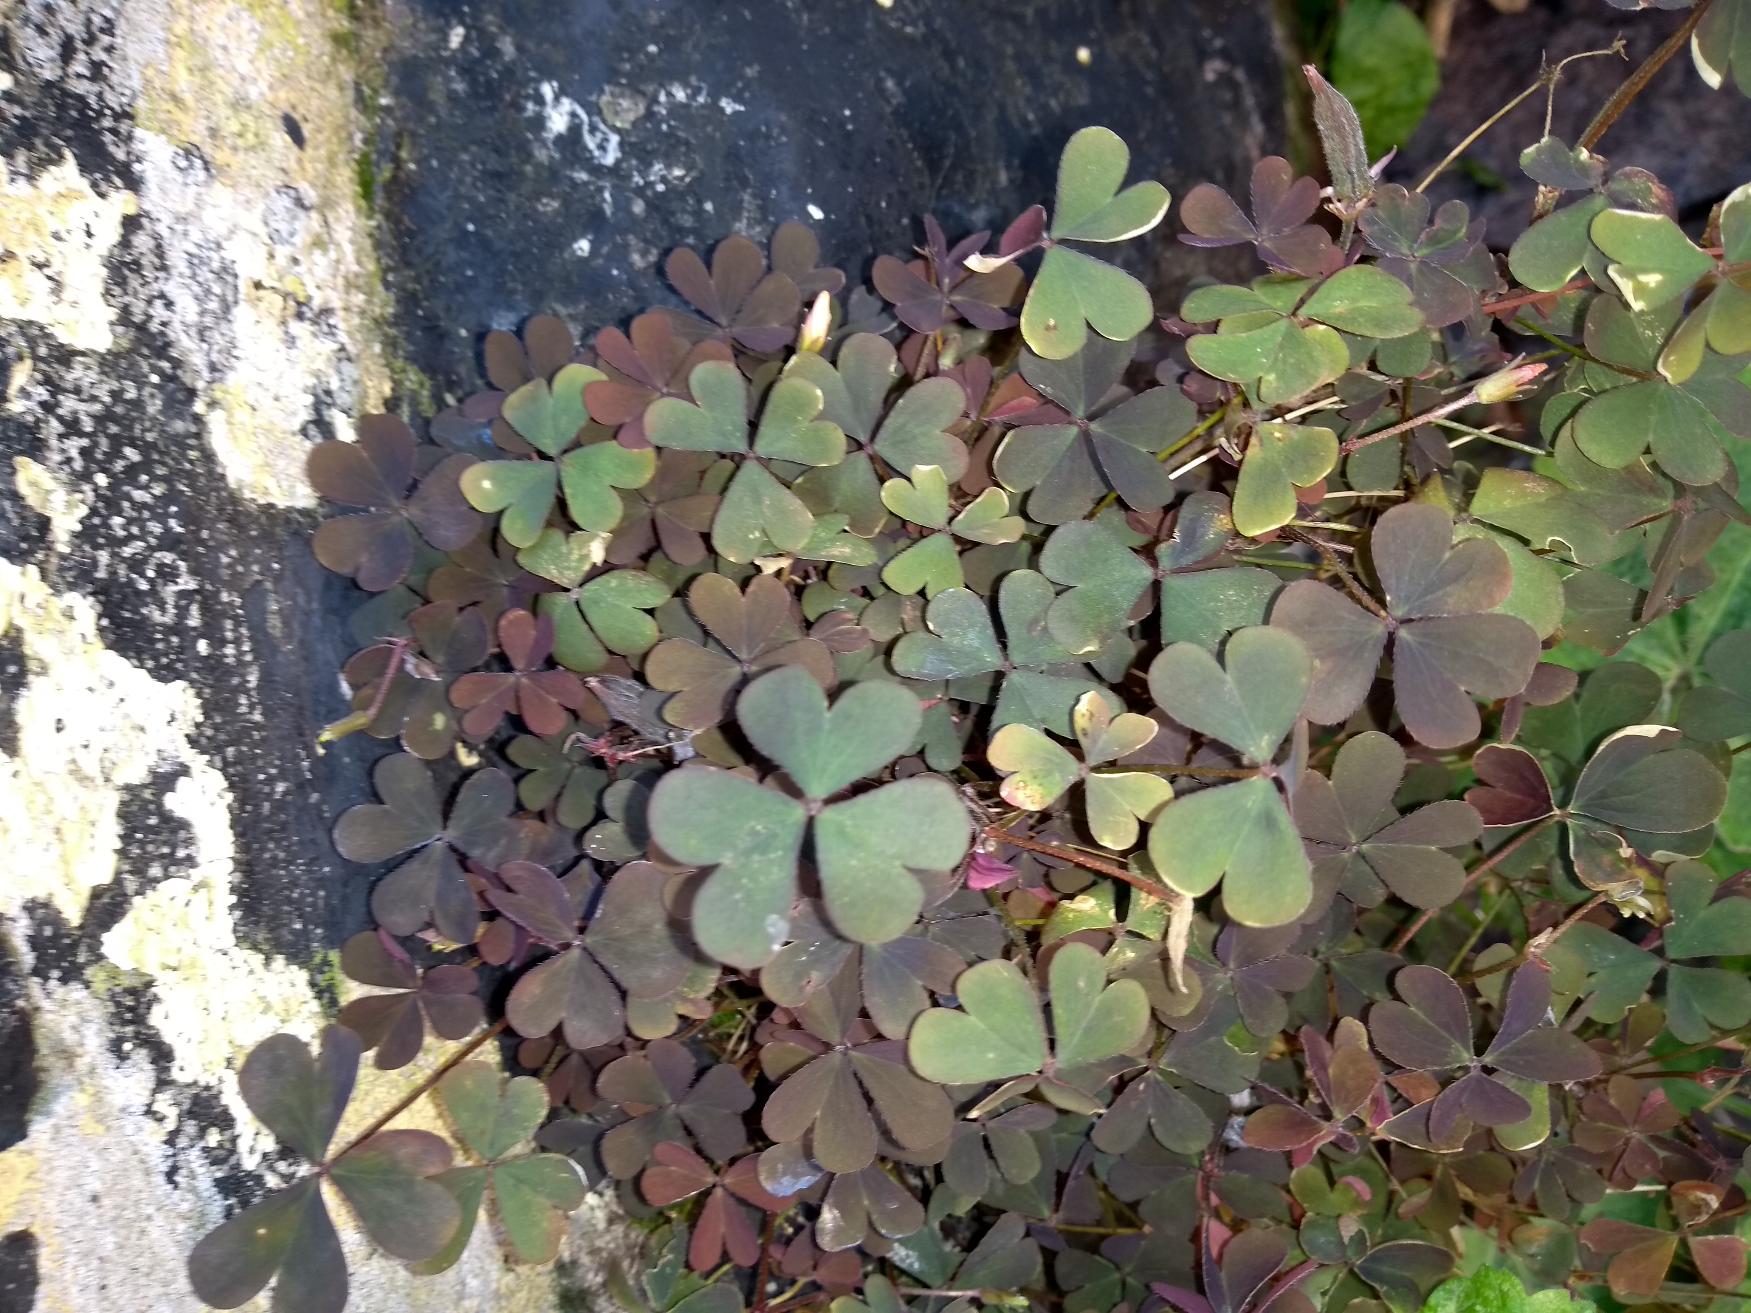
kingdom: Plantae
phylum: Tracheophyta
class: Magnoliopsida
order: Oxalidales
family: Oxalidaceae
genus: Oxalis
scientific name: Oxalis corniculata
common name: Nedliggende surkløver
